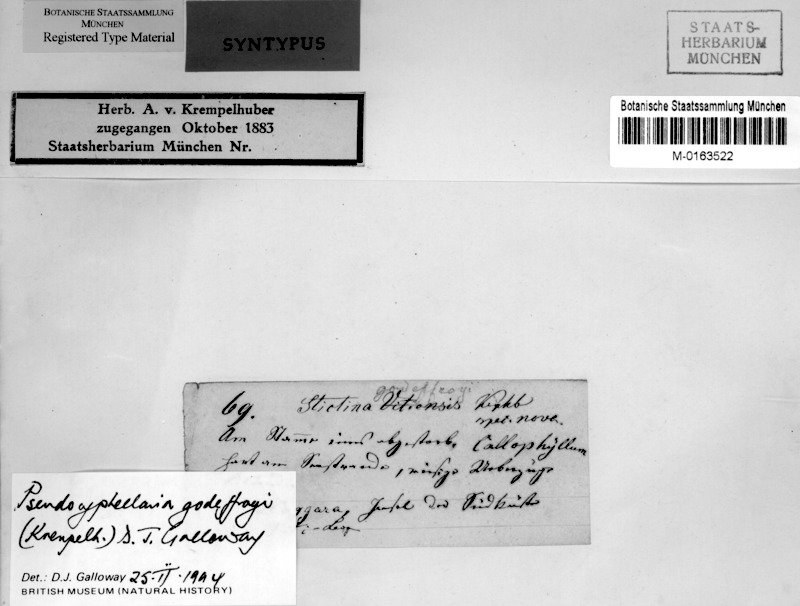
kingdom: Fungi
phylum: Ascomycota
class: Lecanoromycetes
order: Peltigerales
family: Lobariaceae
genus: Pseudocyphellaria
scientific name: Pseudocyphellaria
